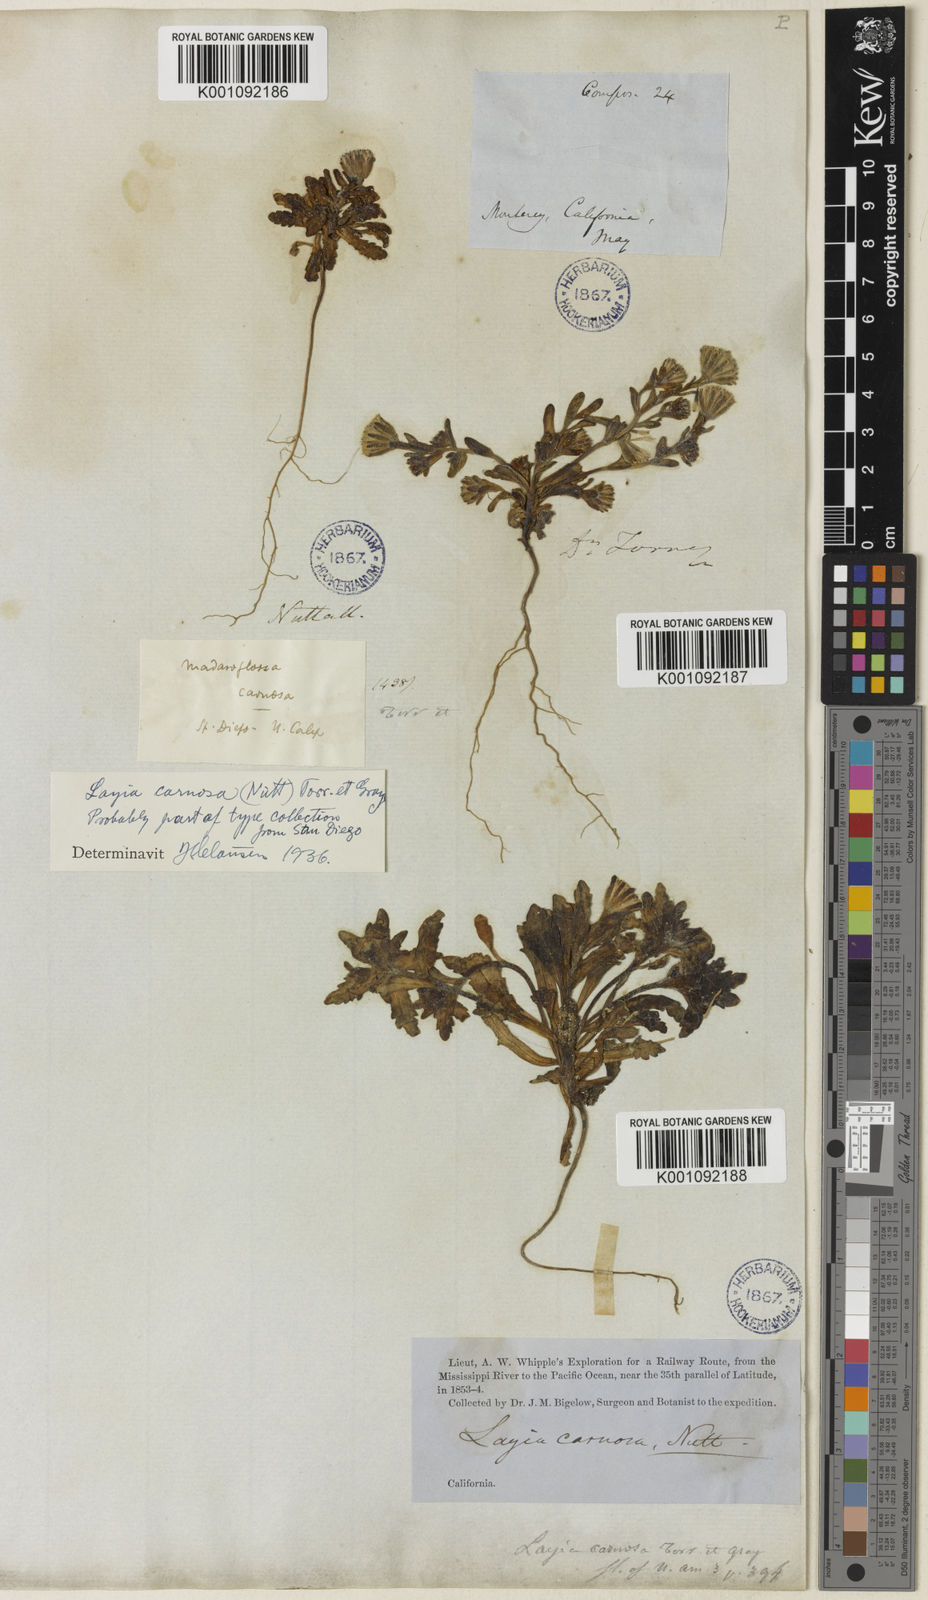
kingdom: Plantae
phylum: Tracheophyta
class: Magnoliopsida
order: Asterales
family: Asteraceae
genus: Layia
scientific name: Layia carnosa
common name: Beach layia
